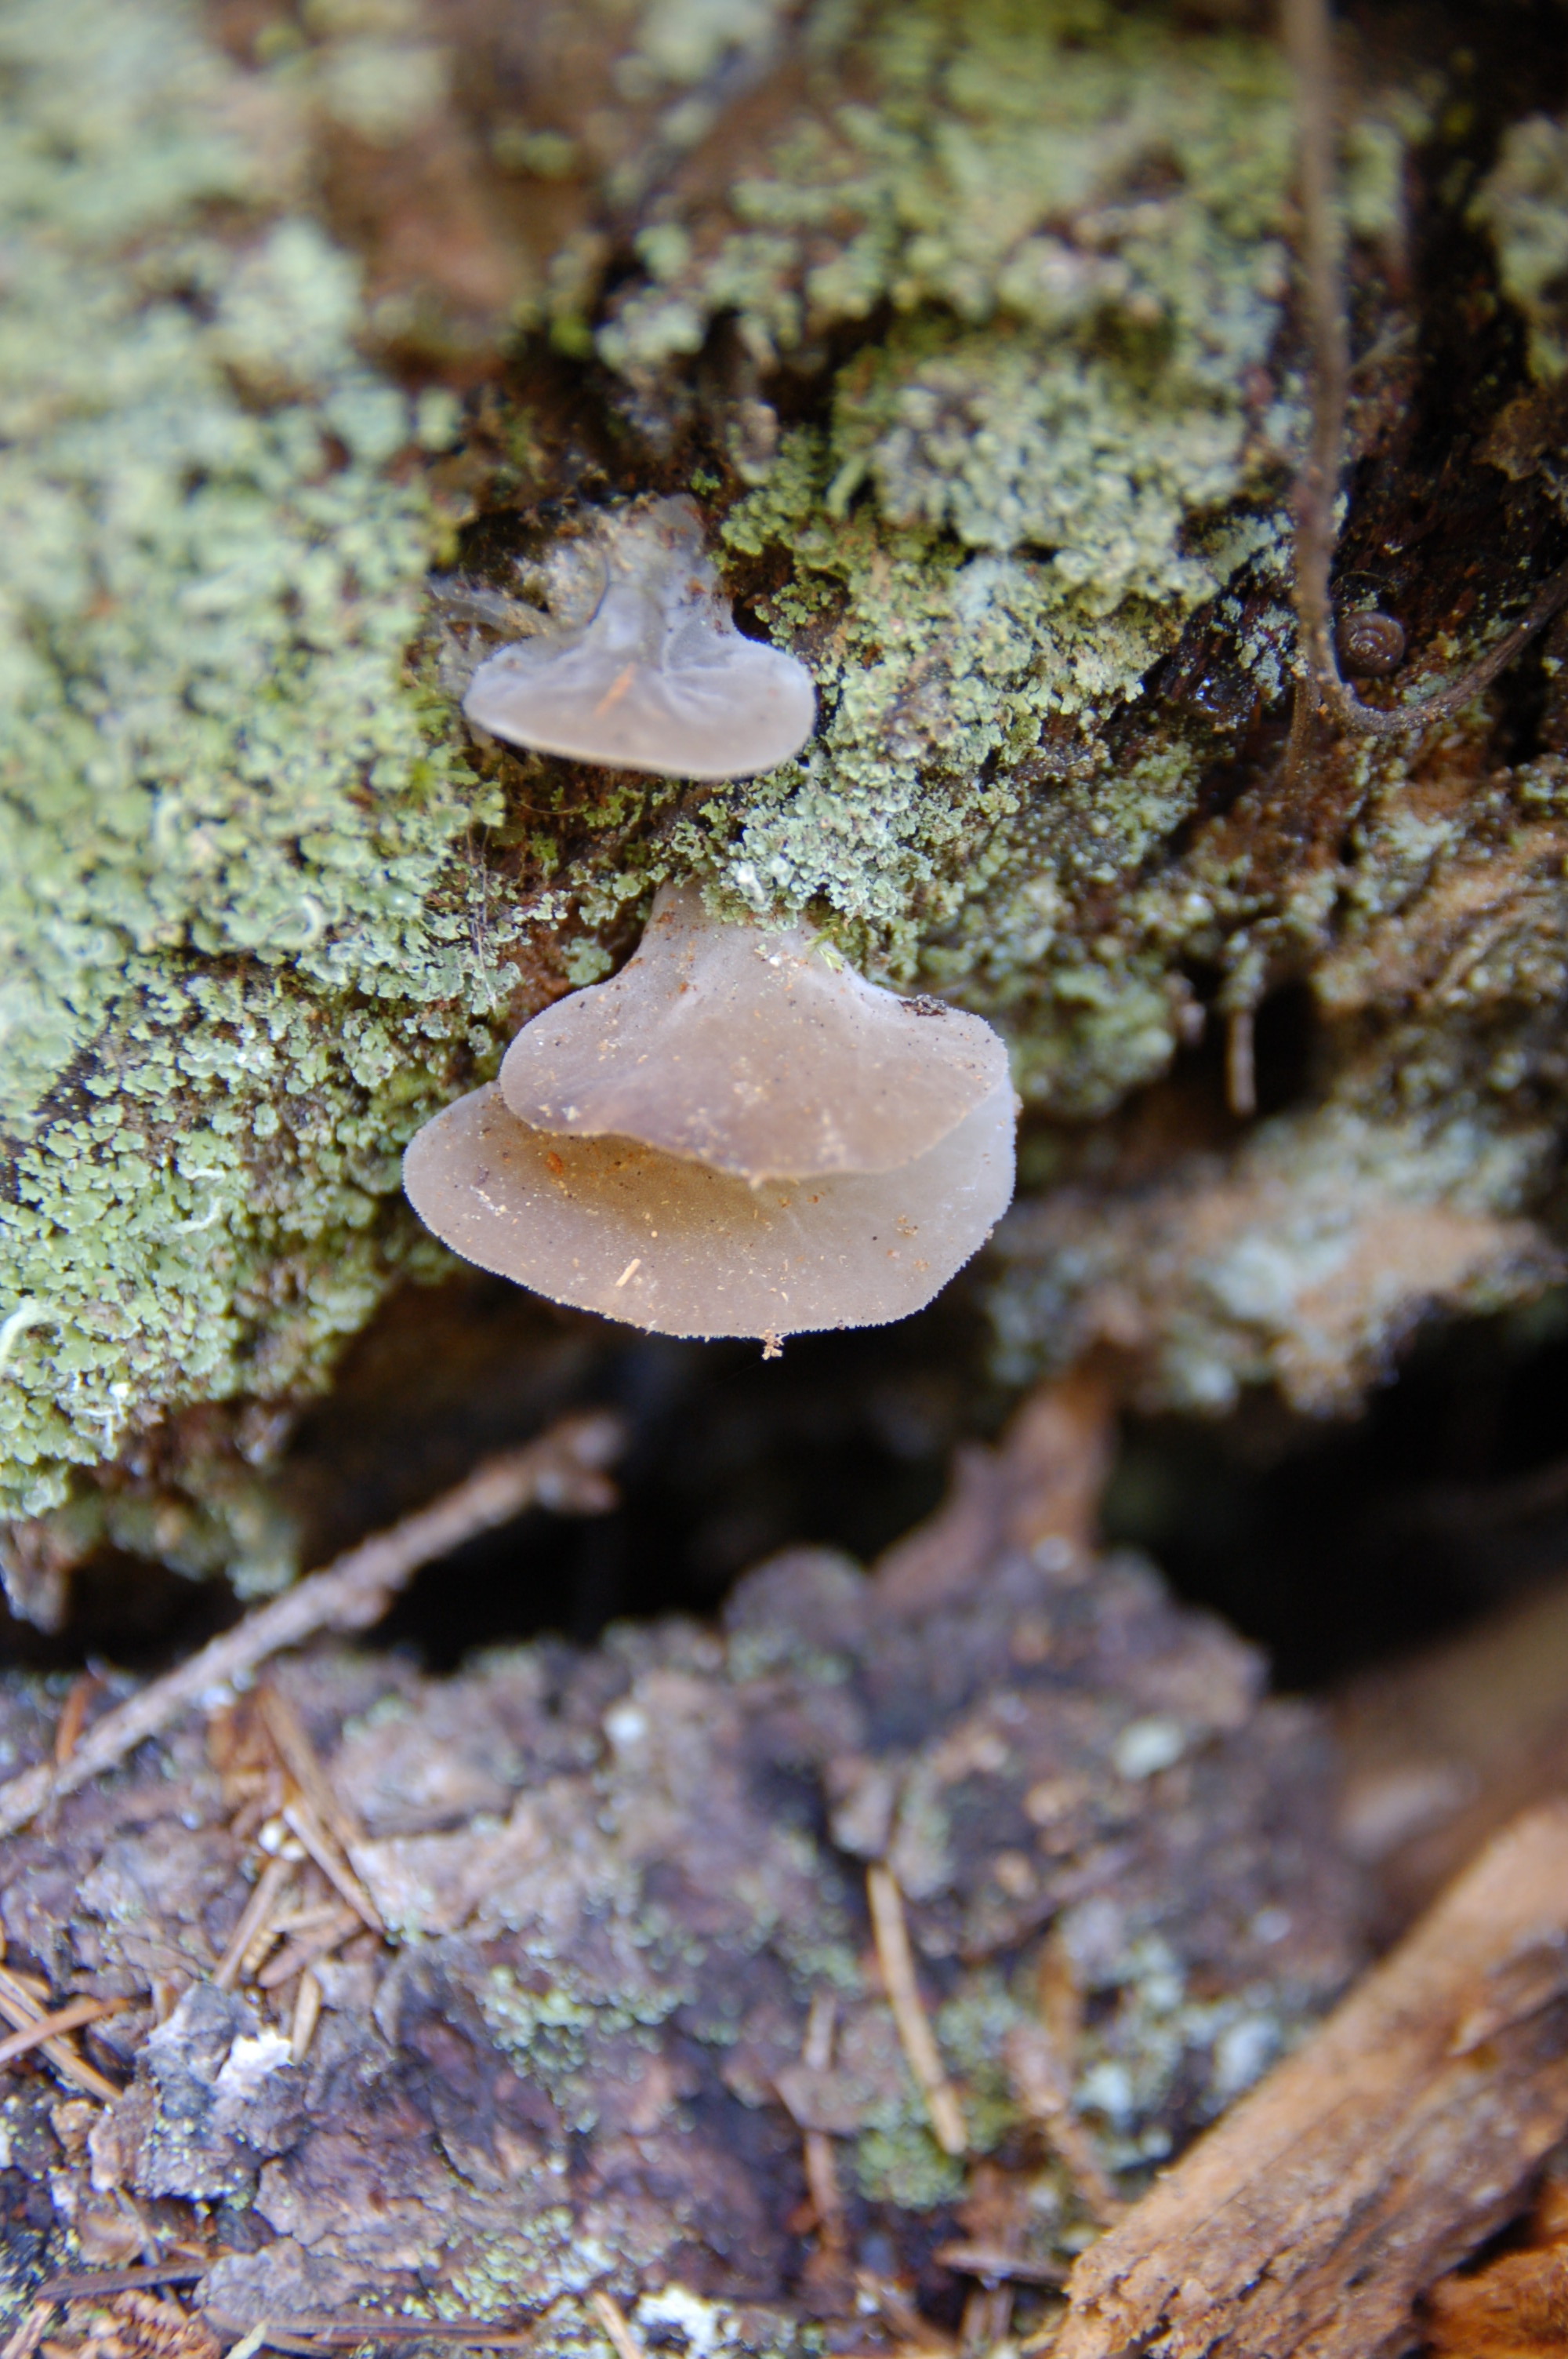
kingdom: Fungi
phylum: Basidiomycota
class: Agaricomycetes
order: Auriculariales
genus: Pseudohydnum
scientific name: Pseudohydnum gelatinosum
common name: Jelly tongue
